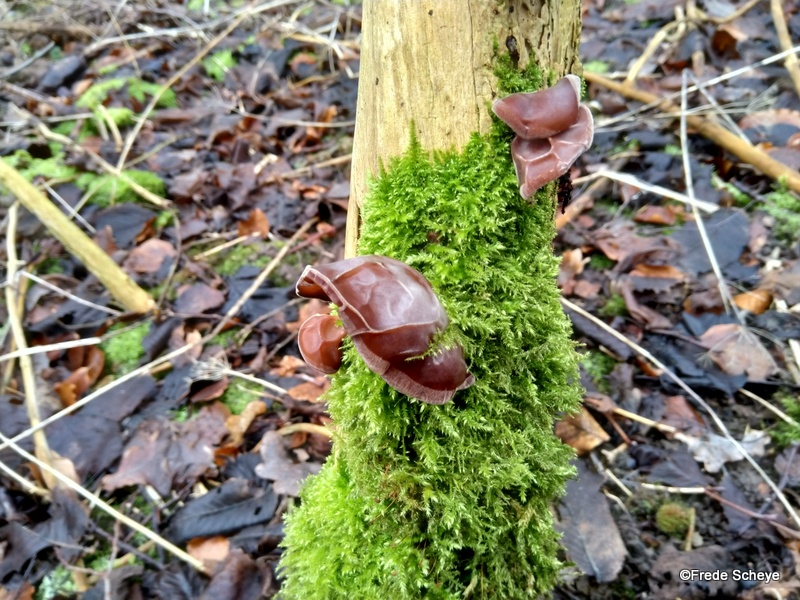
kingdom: Fungi
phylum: Basidiomycota
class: Agaricomycetes
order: Auriculariales
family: Auriculariaceae
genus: Auricularia
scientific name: Auricularia auricula-judae
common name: almindelig judasøre
